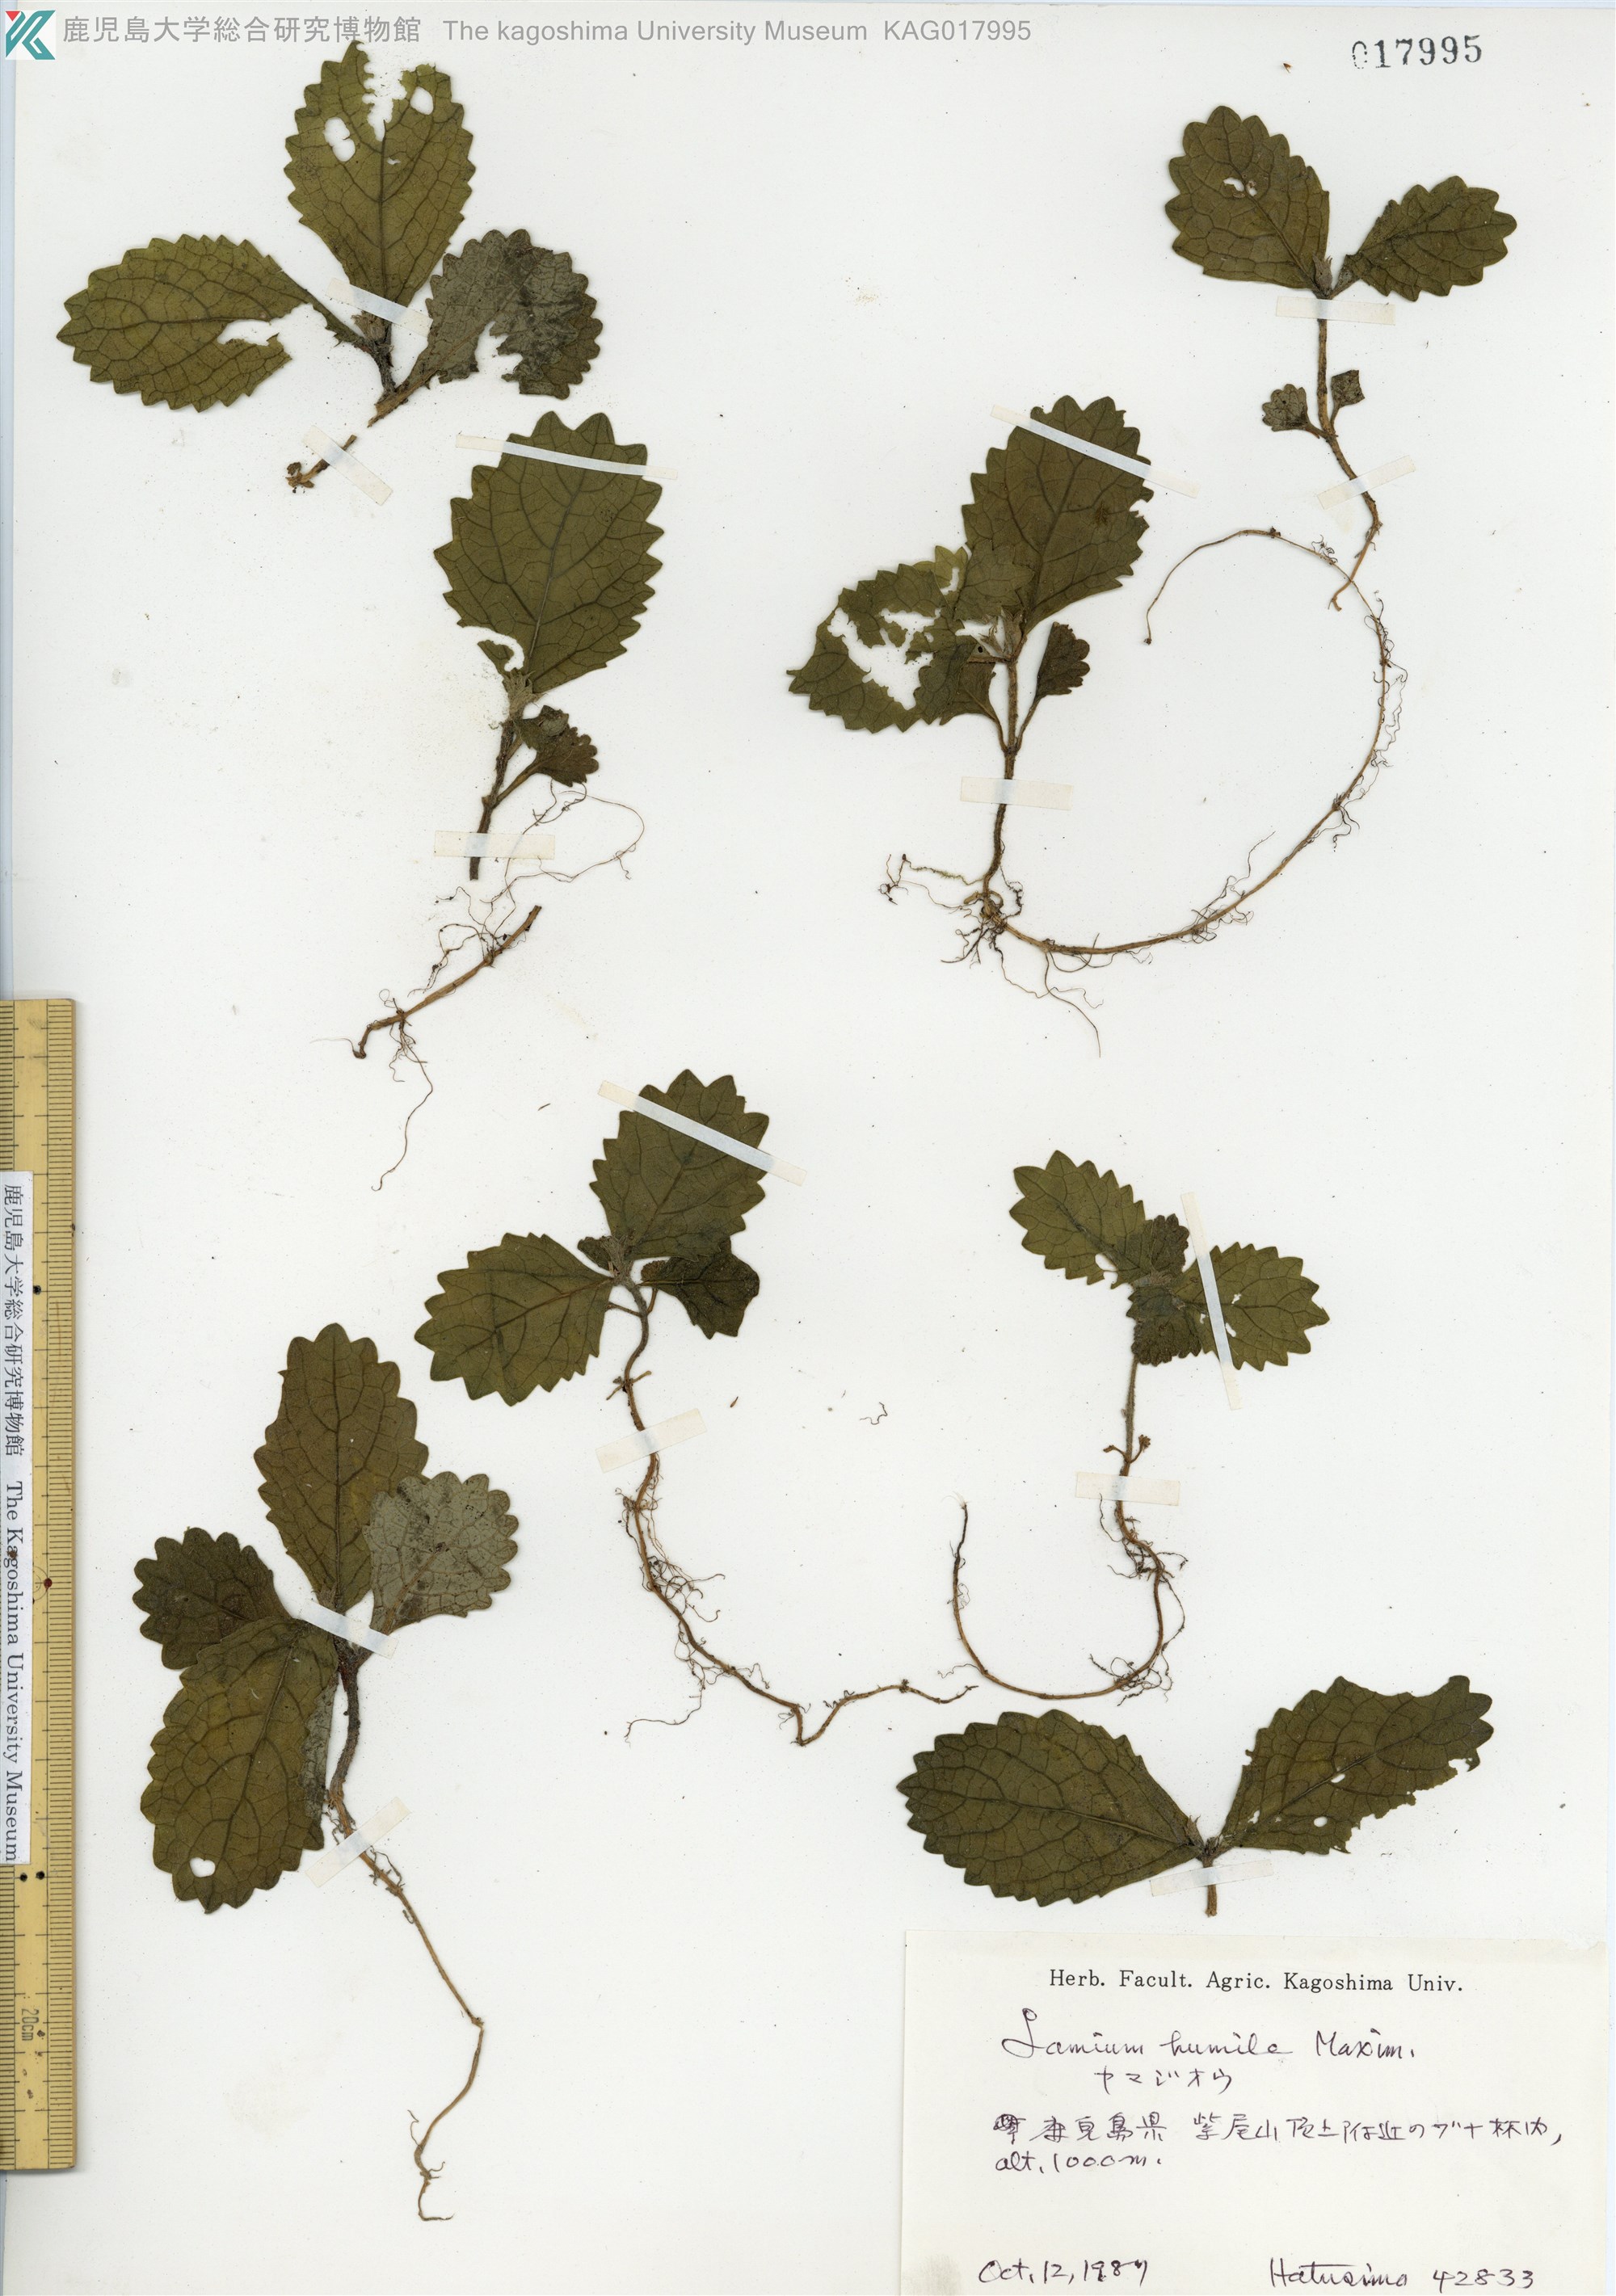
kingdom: Plantae
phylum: Tracheophyta
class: Magnoliopsida
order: Lamiales
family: Lamiaceae
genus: Ajugoides
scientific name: Ajugoides humilis
